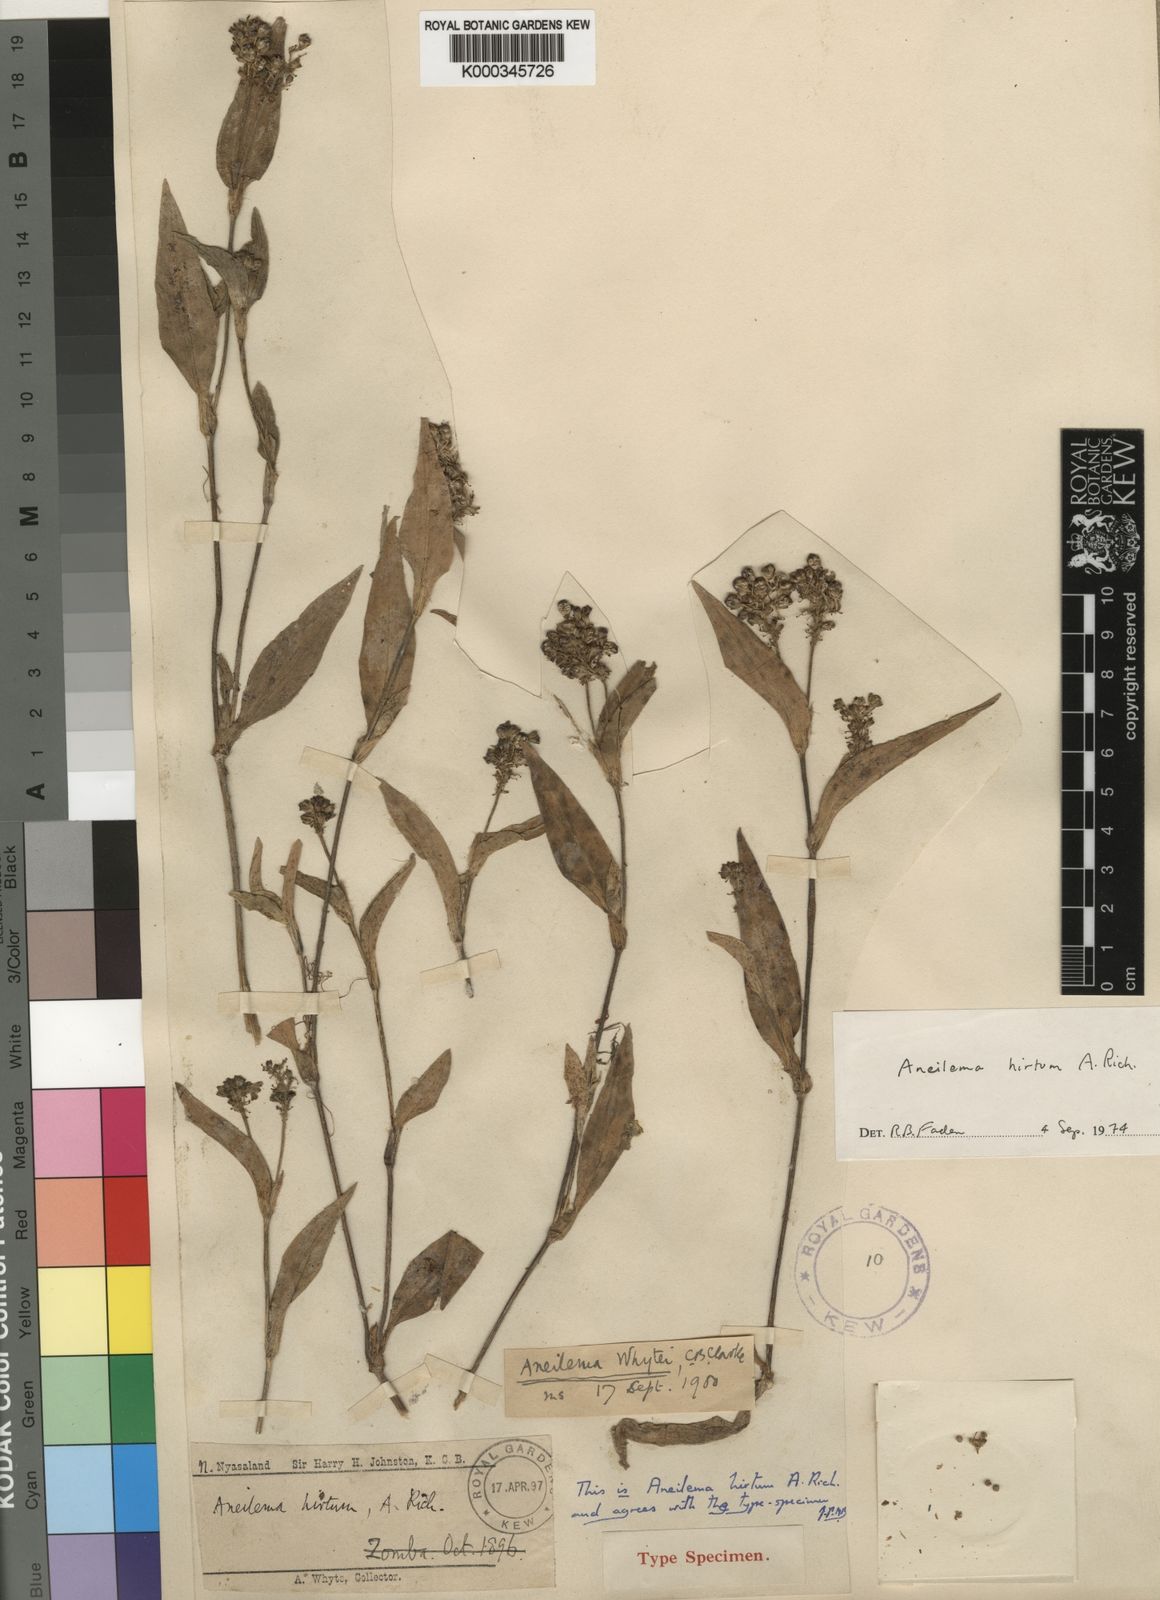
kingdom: Plantae
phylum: Tracheophyta
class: Liliopsida
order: Commelinales
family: Commelinaceae
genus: Aneilema
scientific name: Aneilema hirtum
